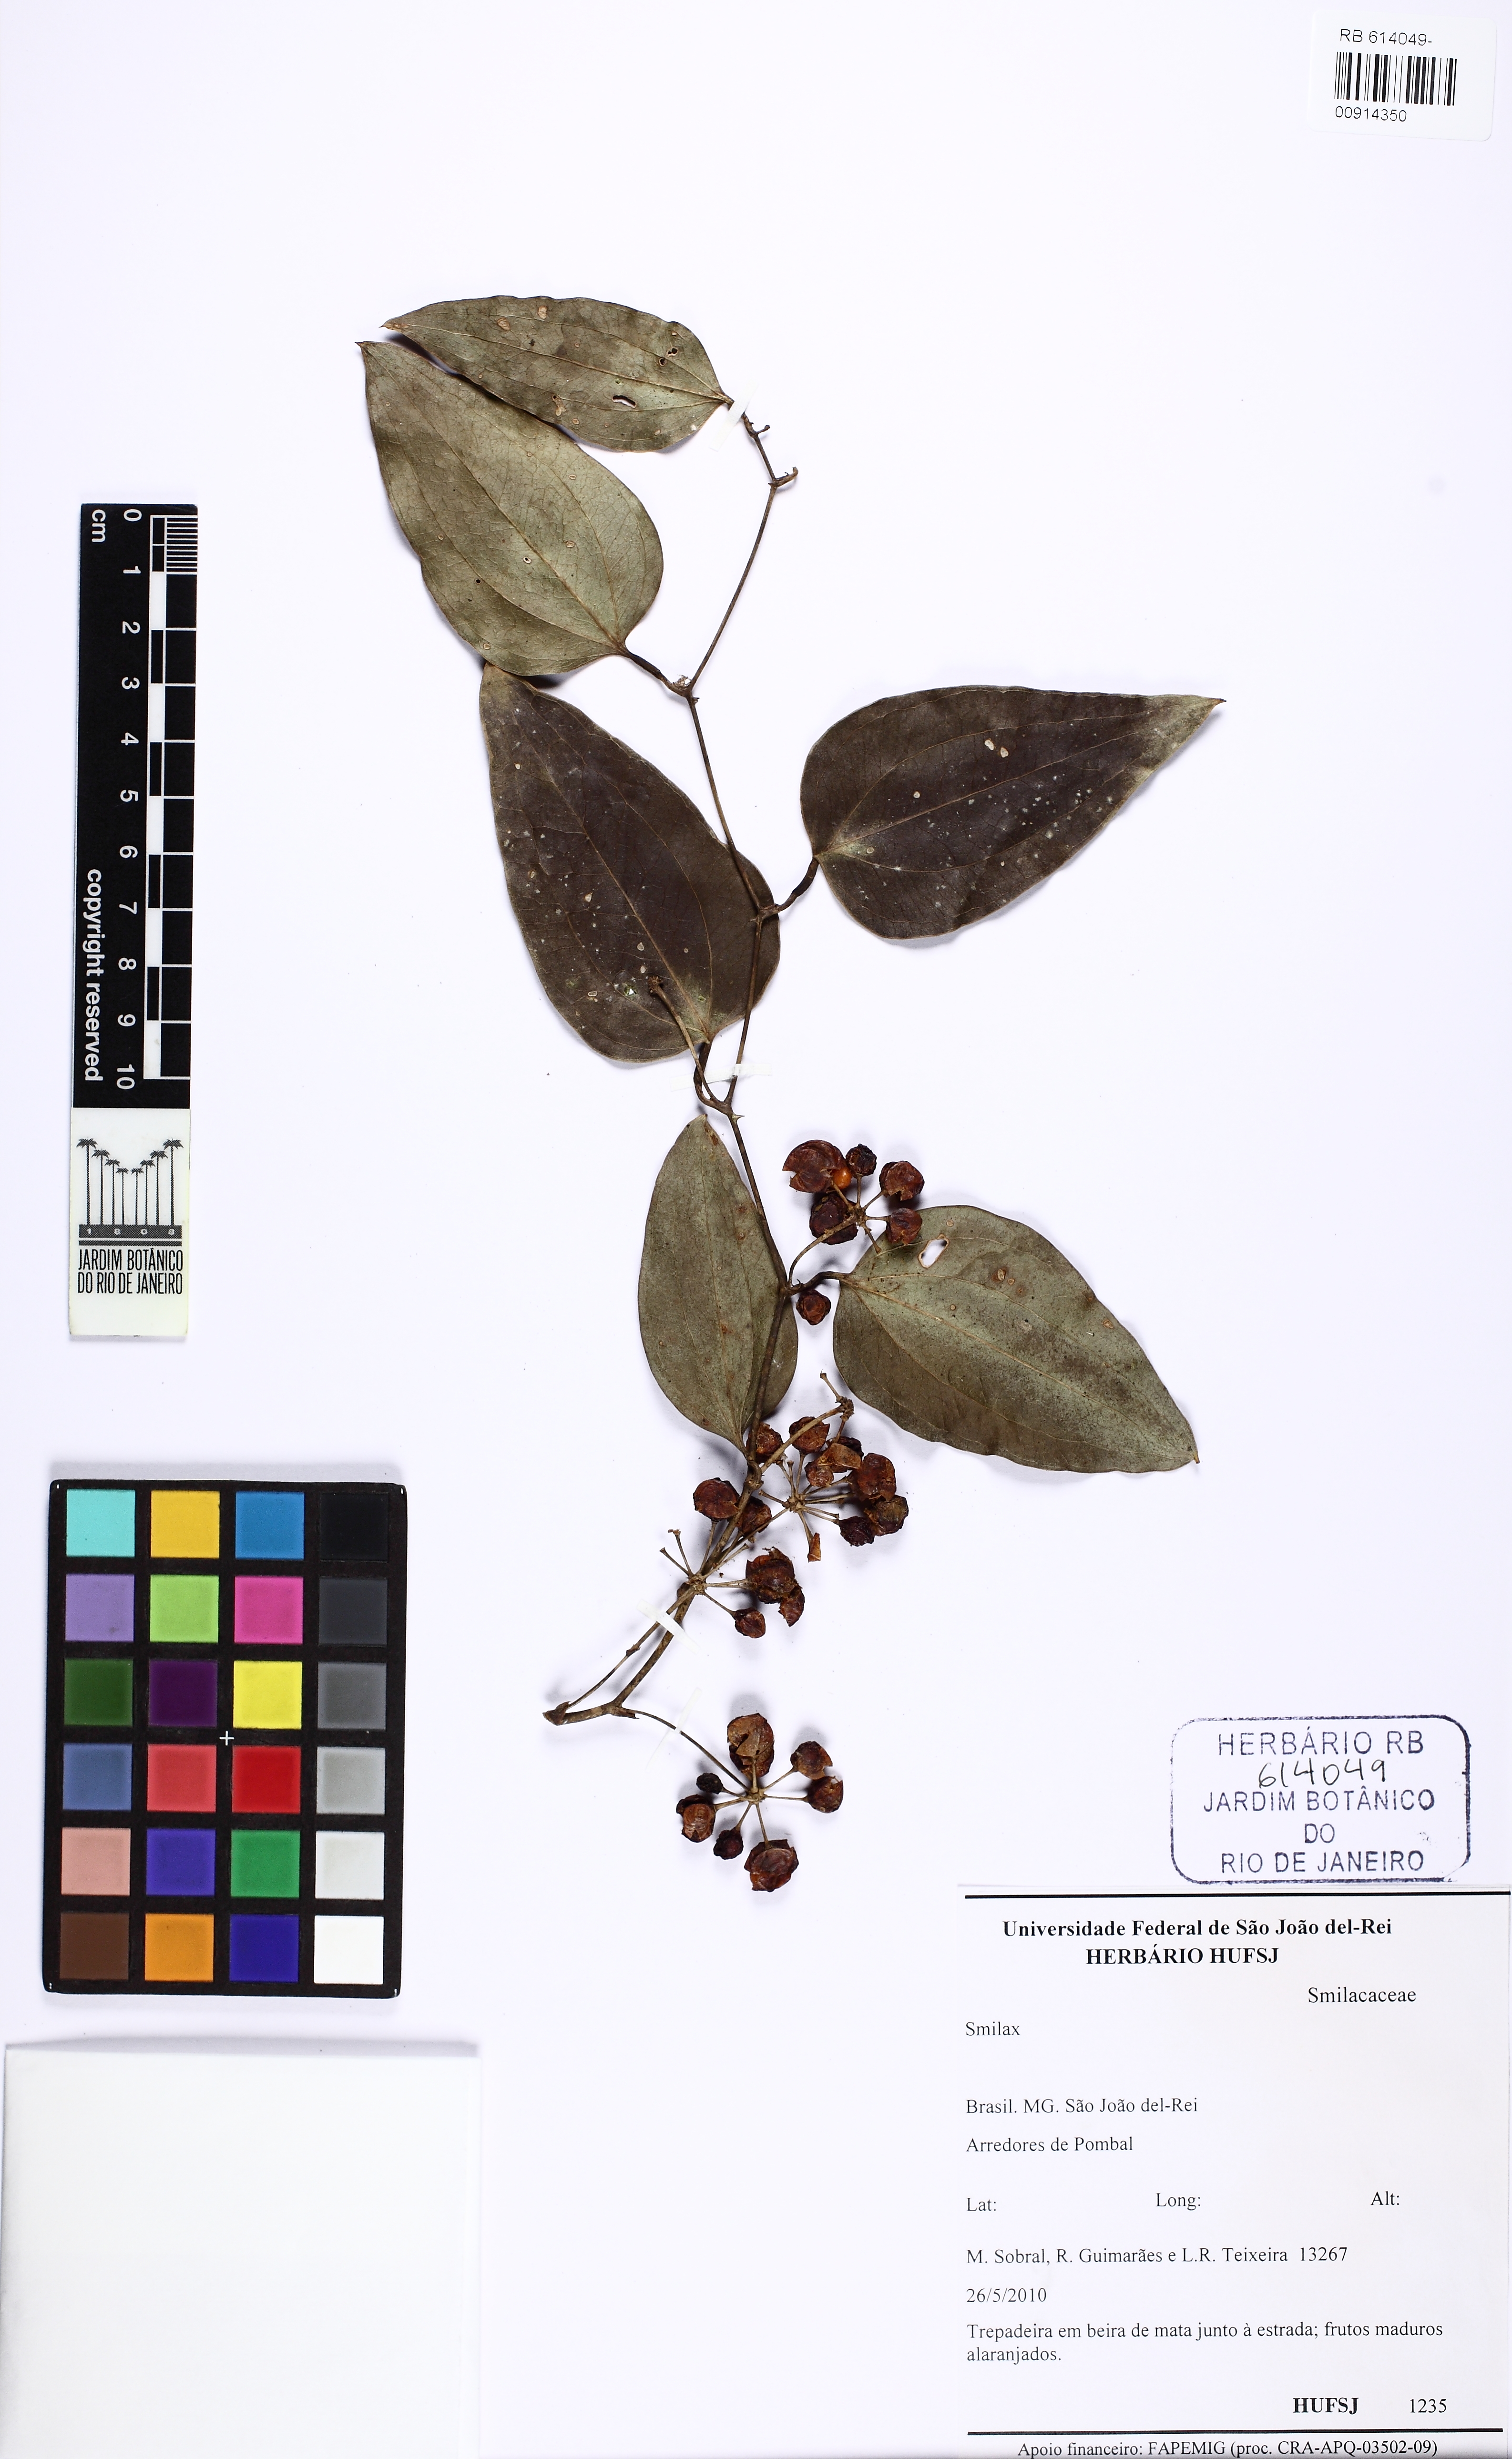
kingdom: Plantae
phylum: Tracheophyta
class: Liliopsida
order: Liliales
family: Smilacaceae
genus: Smilax
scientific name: Smilax
